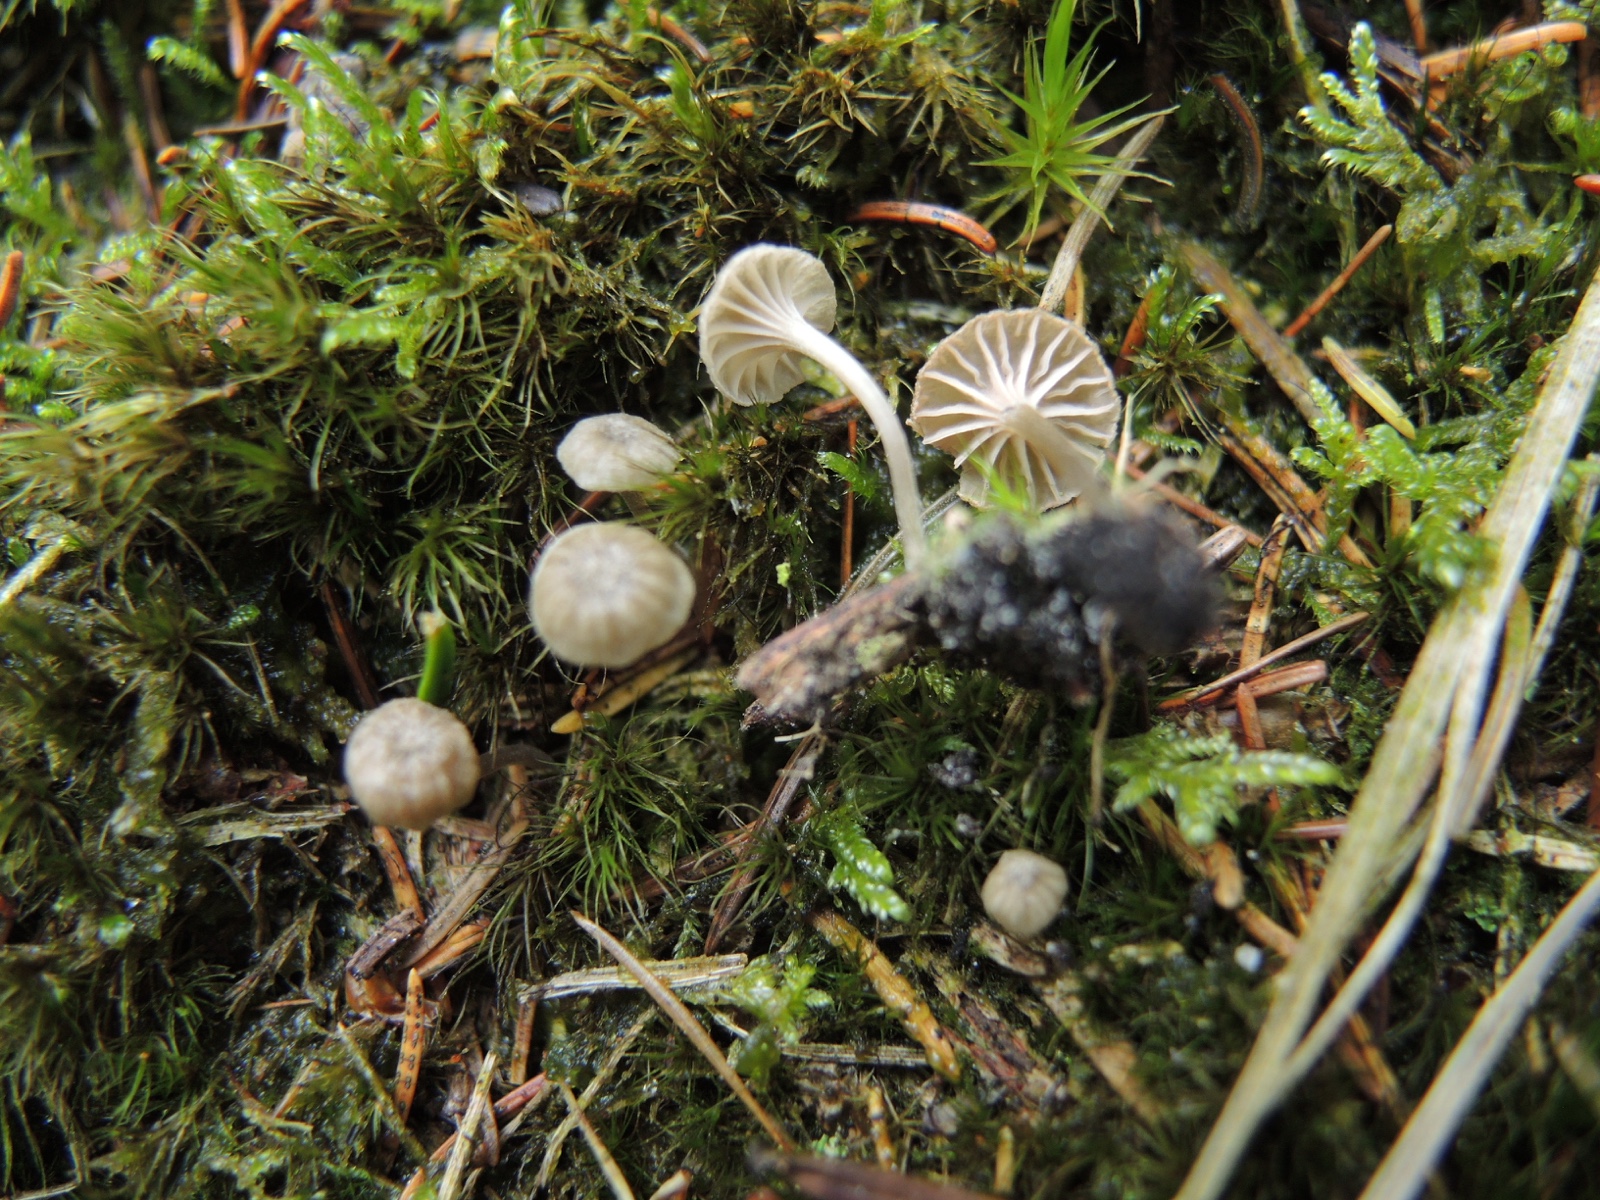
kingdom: Fungi
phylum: Basidiomycota
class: Agaricomycetes
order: Agaricales
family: Entolomataceae
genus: Entoloma
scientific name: Entoloma rhodocylix
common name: fjernbladet rødblad
